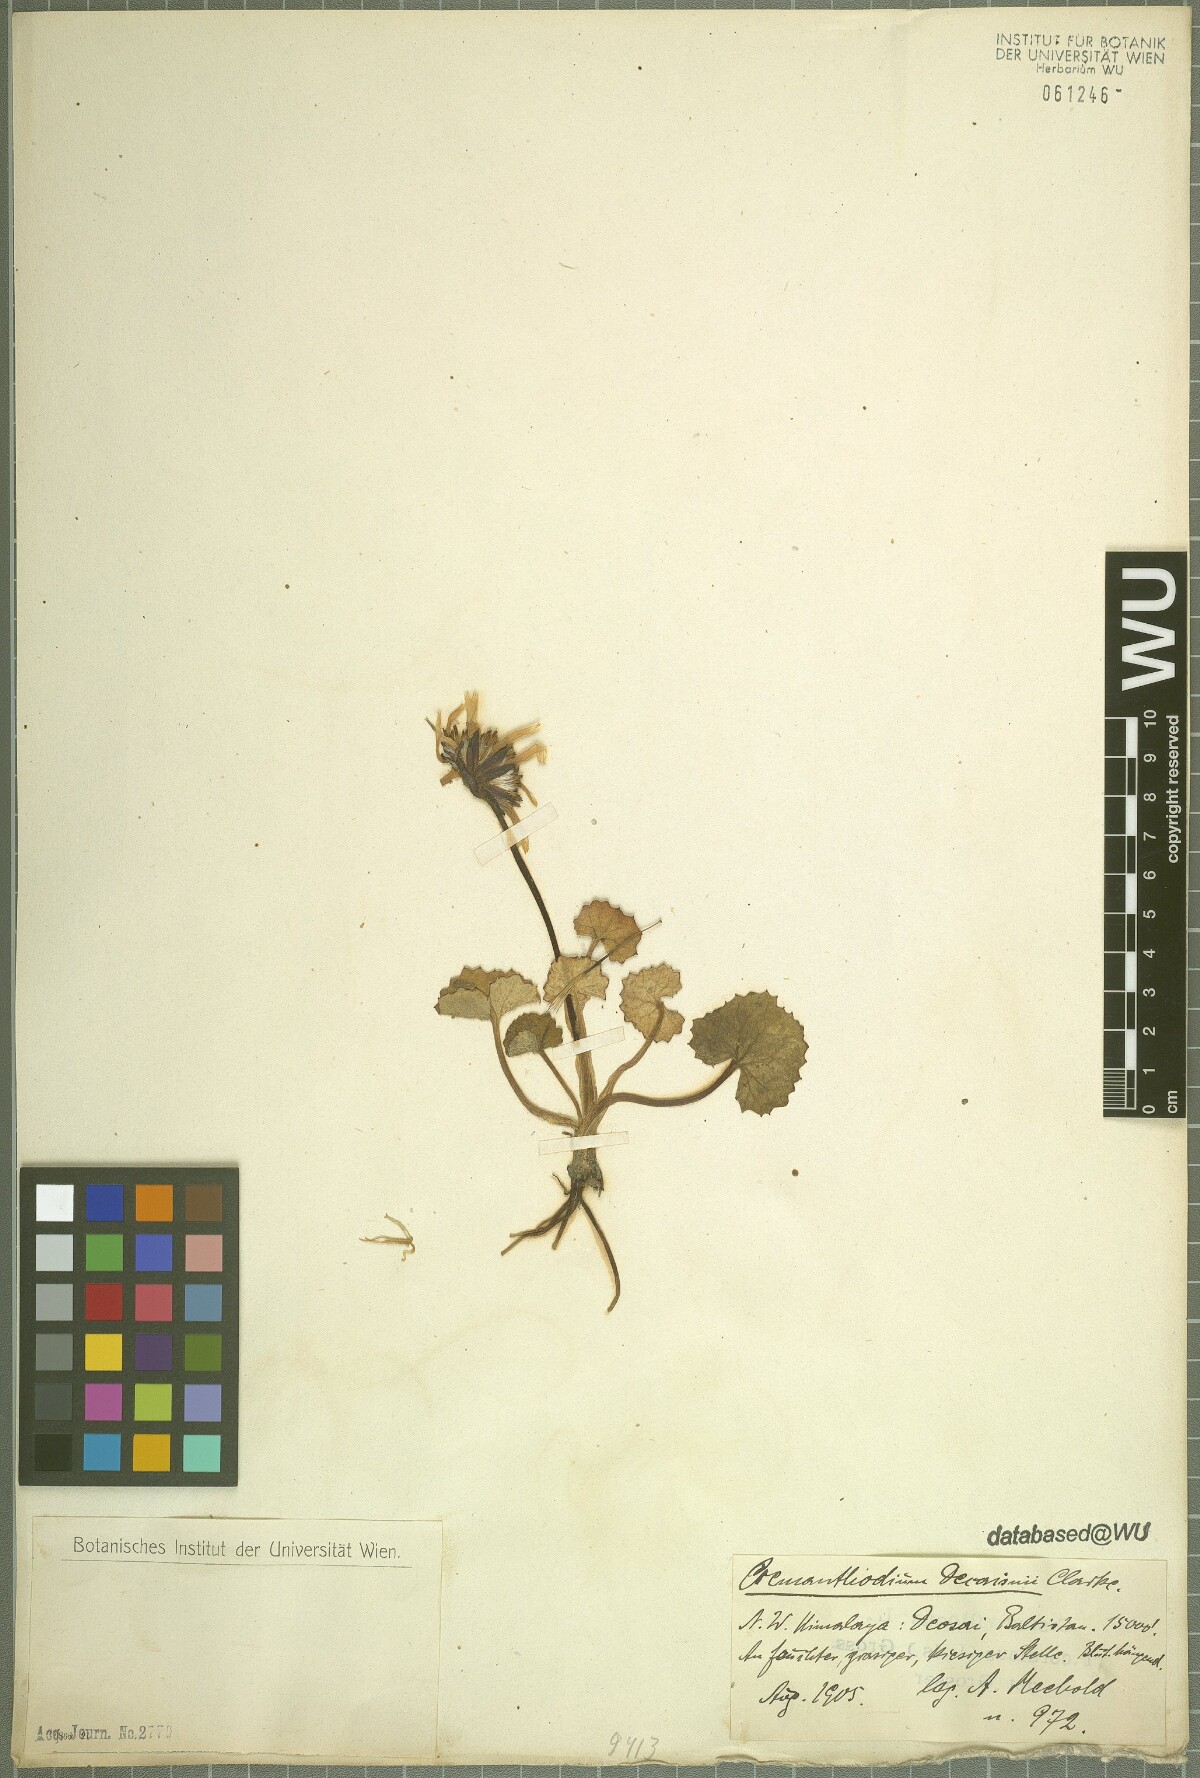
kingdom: Plantae
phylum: Tracheophyta
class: Magnoliopsida
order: Asterales
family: Asteraceae
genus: Cremanthodium
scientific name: Cremanthodium decaisnei
